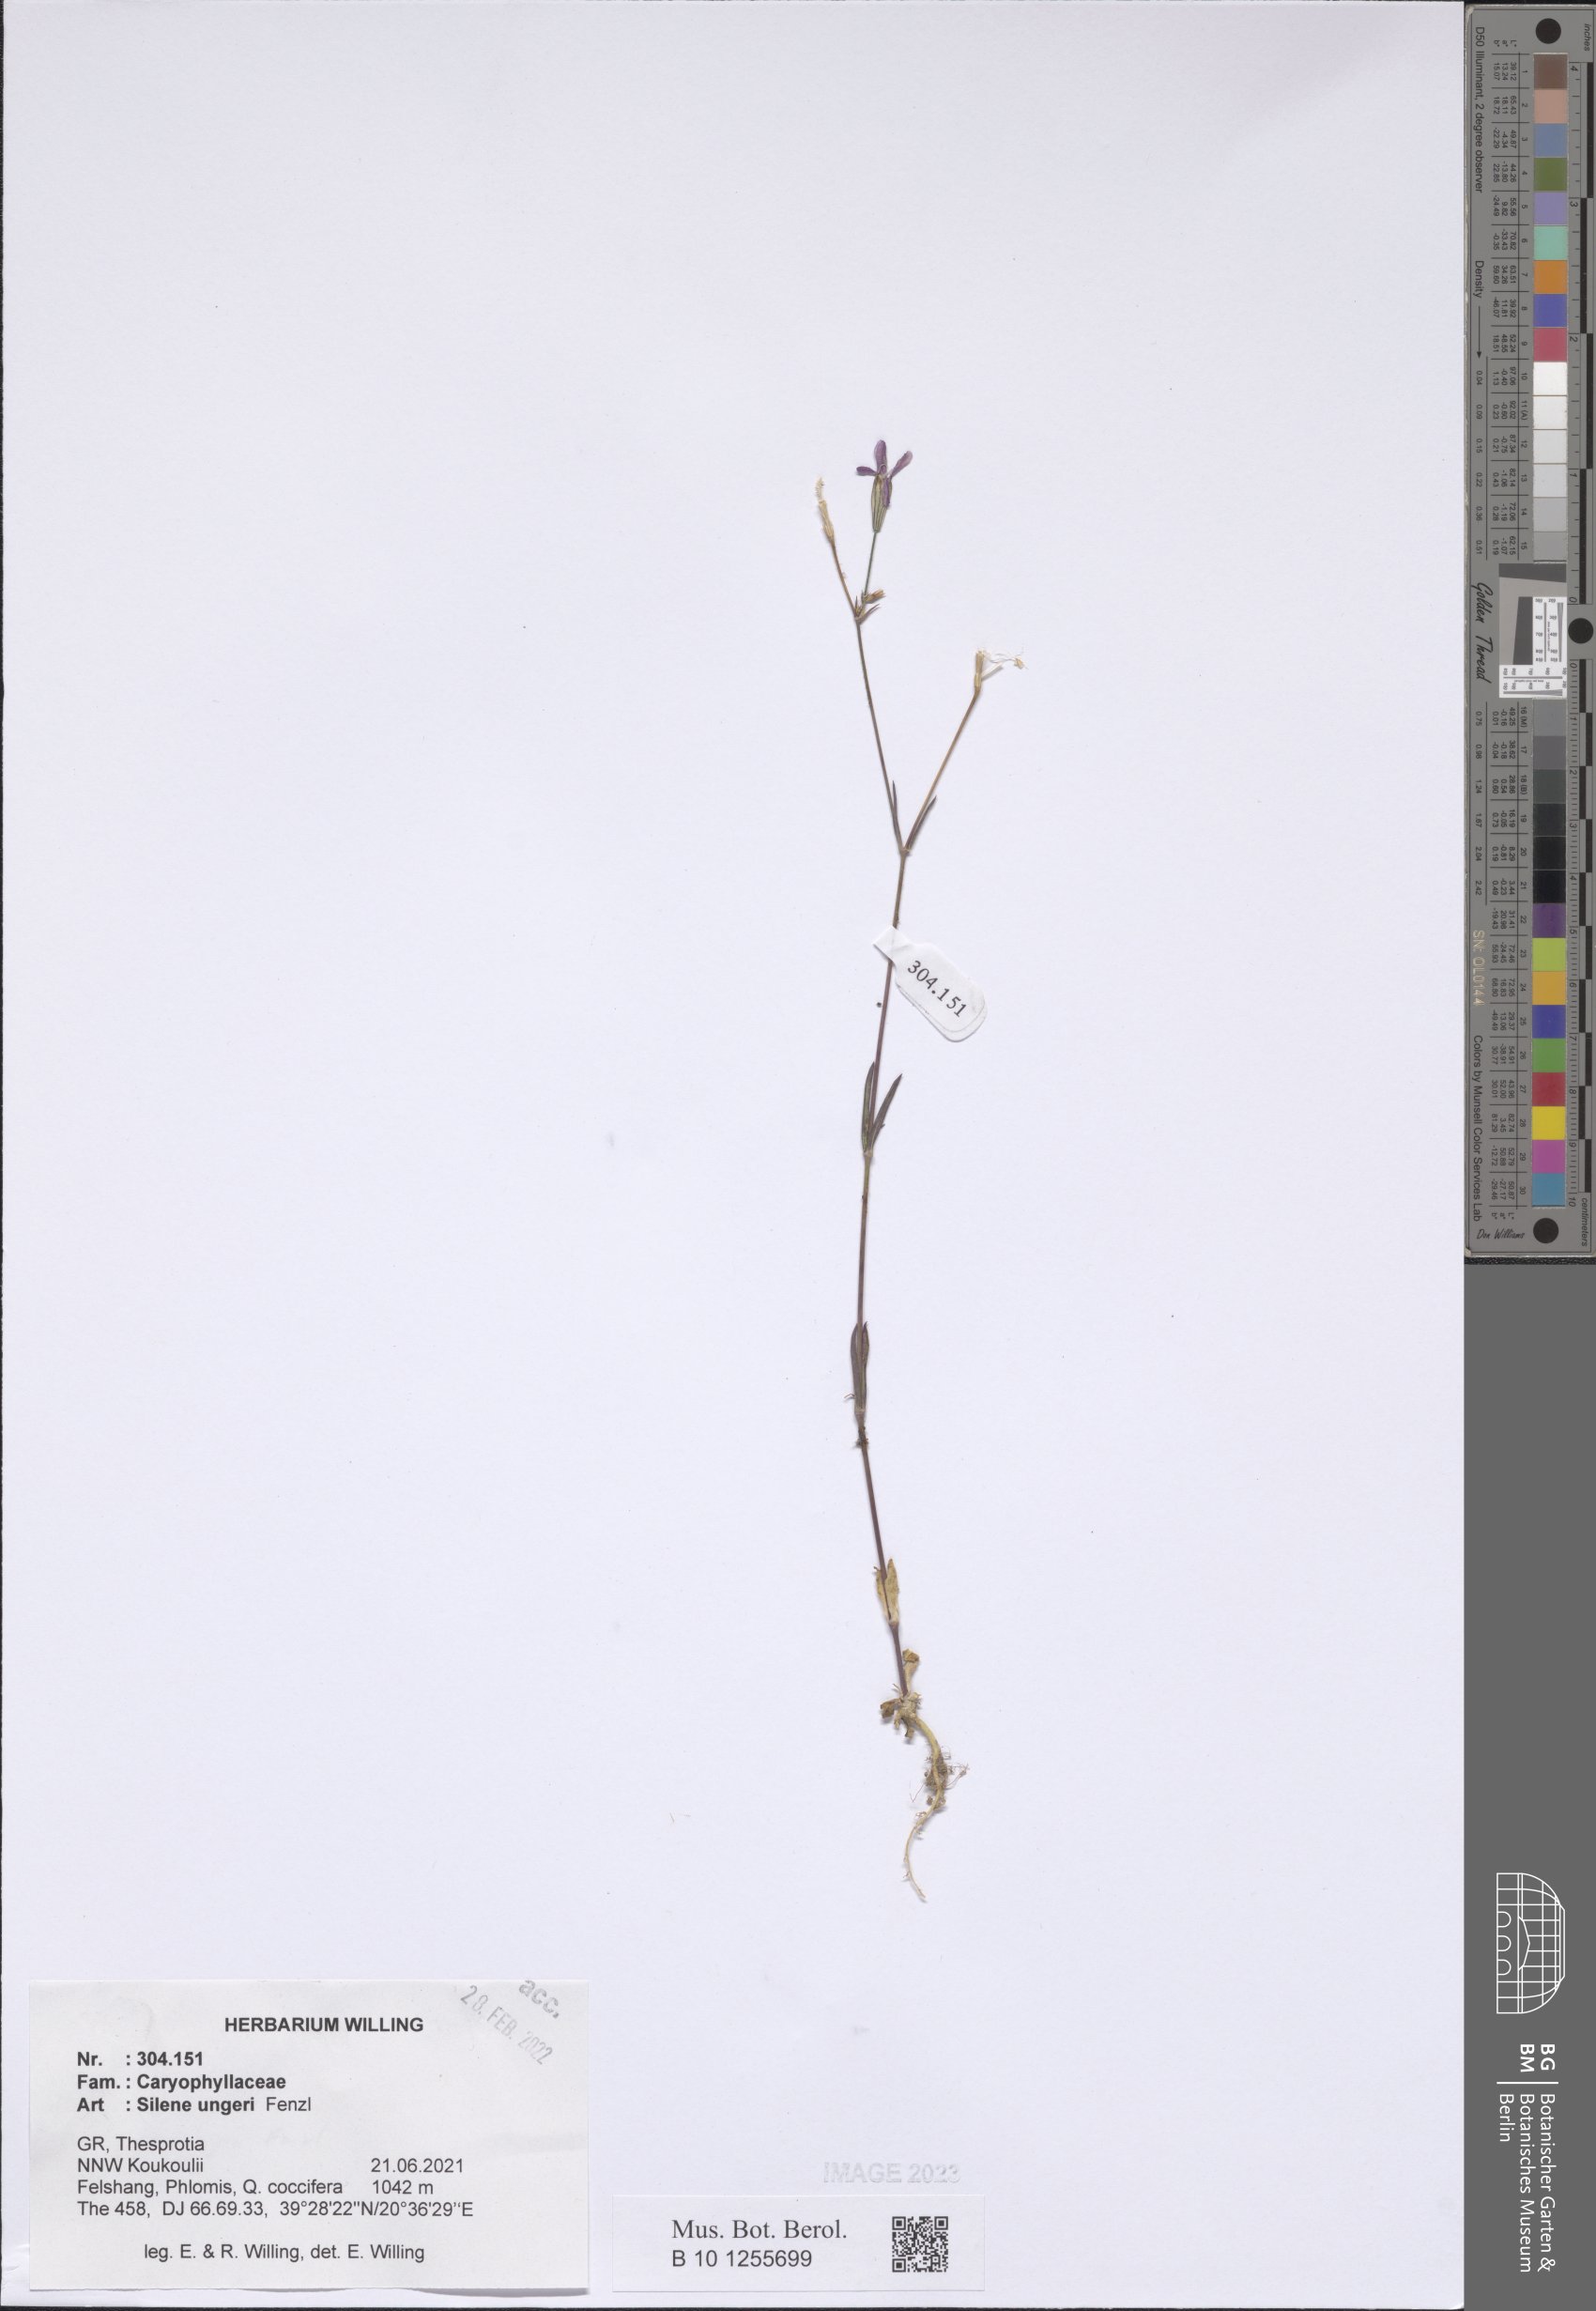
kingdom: Plantae
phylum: Tracheophyta
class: Magnoliopsida
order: Caryophyllales
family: Caryophyllaceae
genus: Silene
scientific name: Silene ungeri
